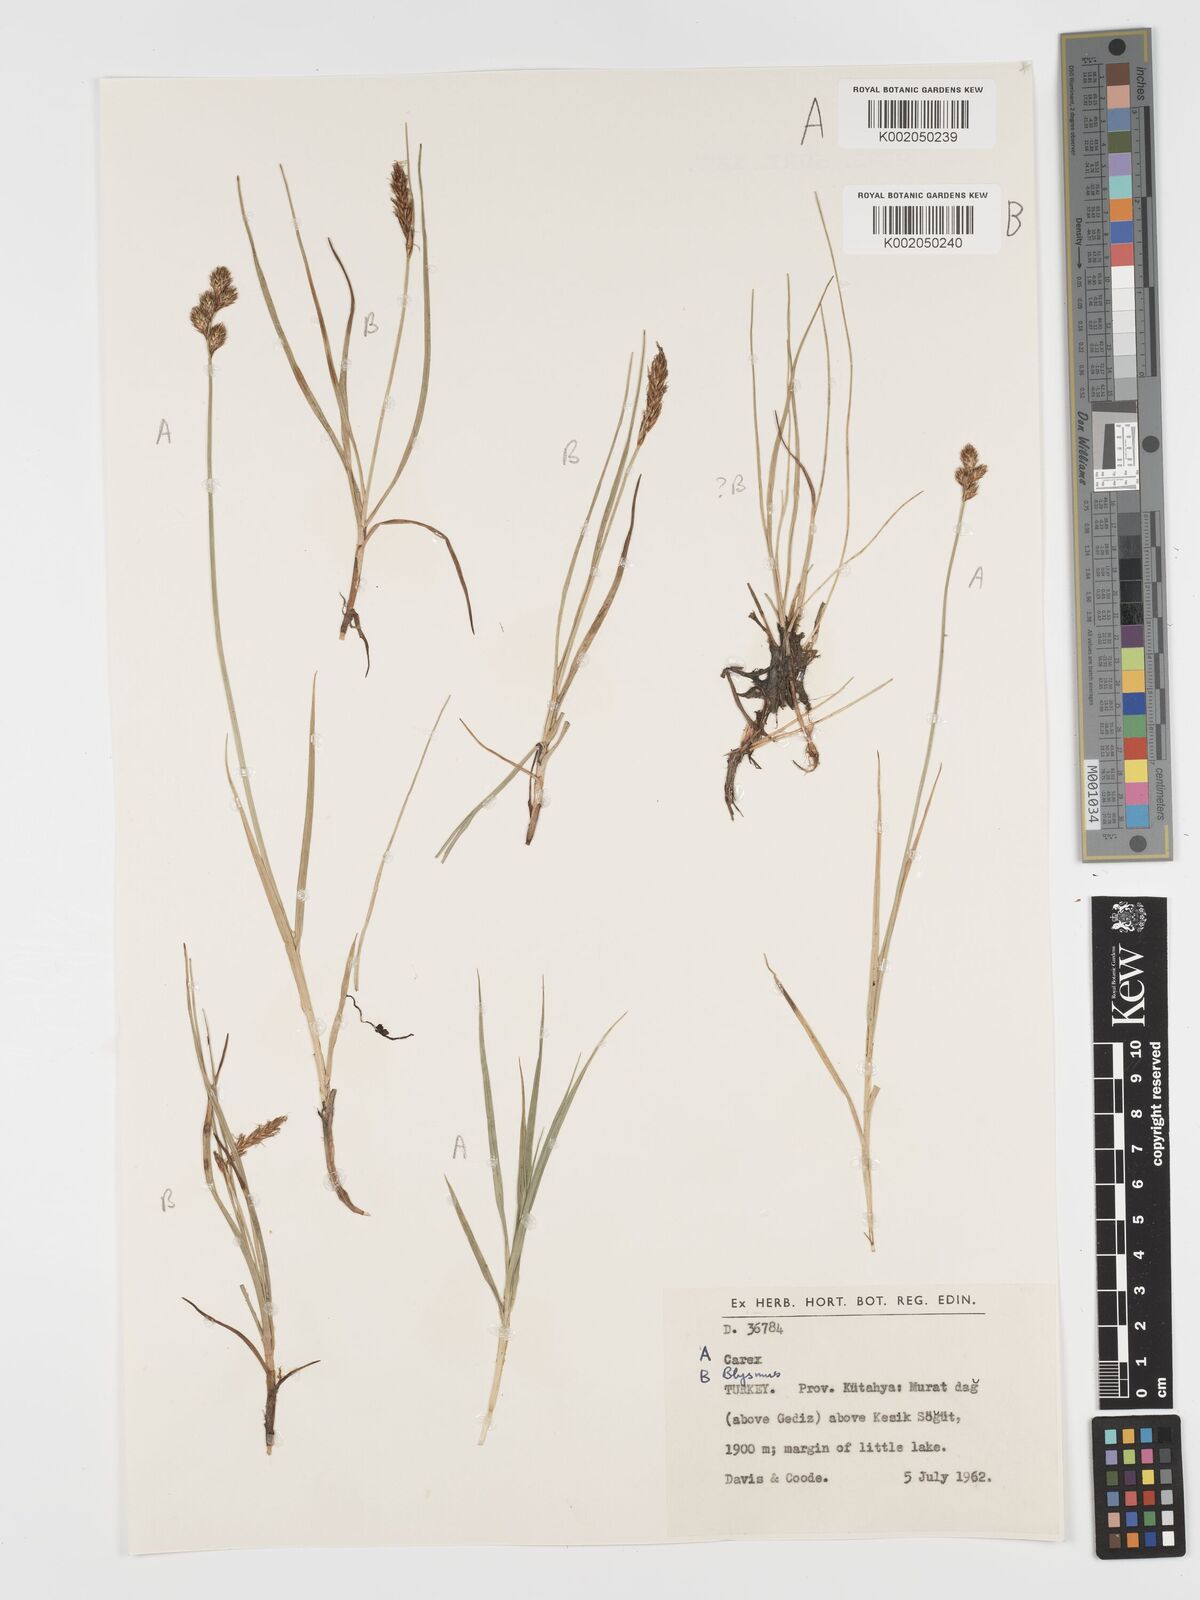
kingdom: Plantae
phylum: Tracheophyta
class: Liliopsida
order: Poales
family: Cyperaceae
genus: Blysmus
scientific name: Blysmus compressus
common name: Flat-sedge
